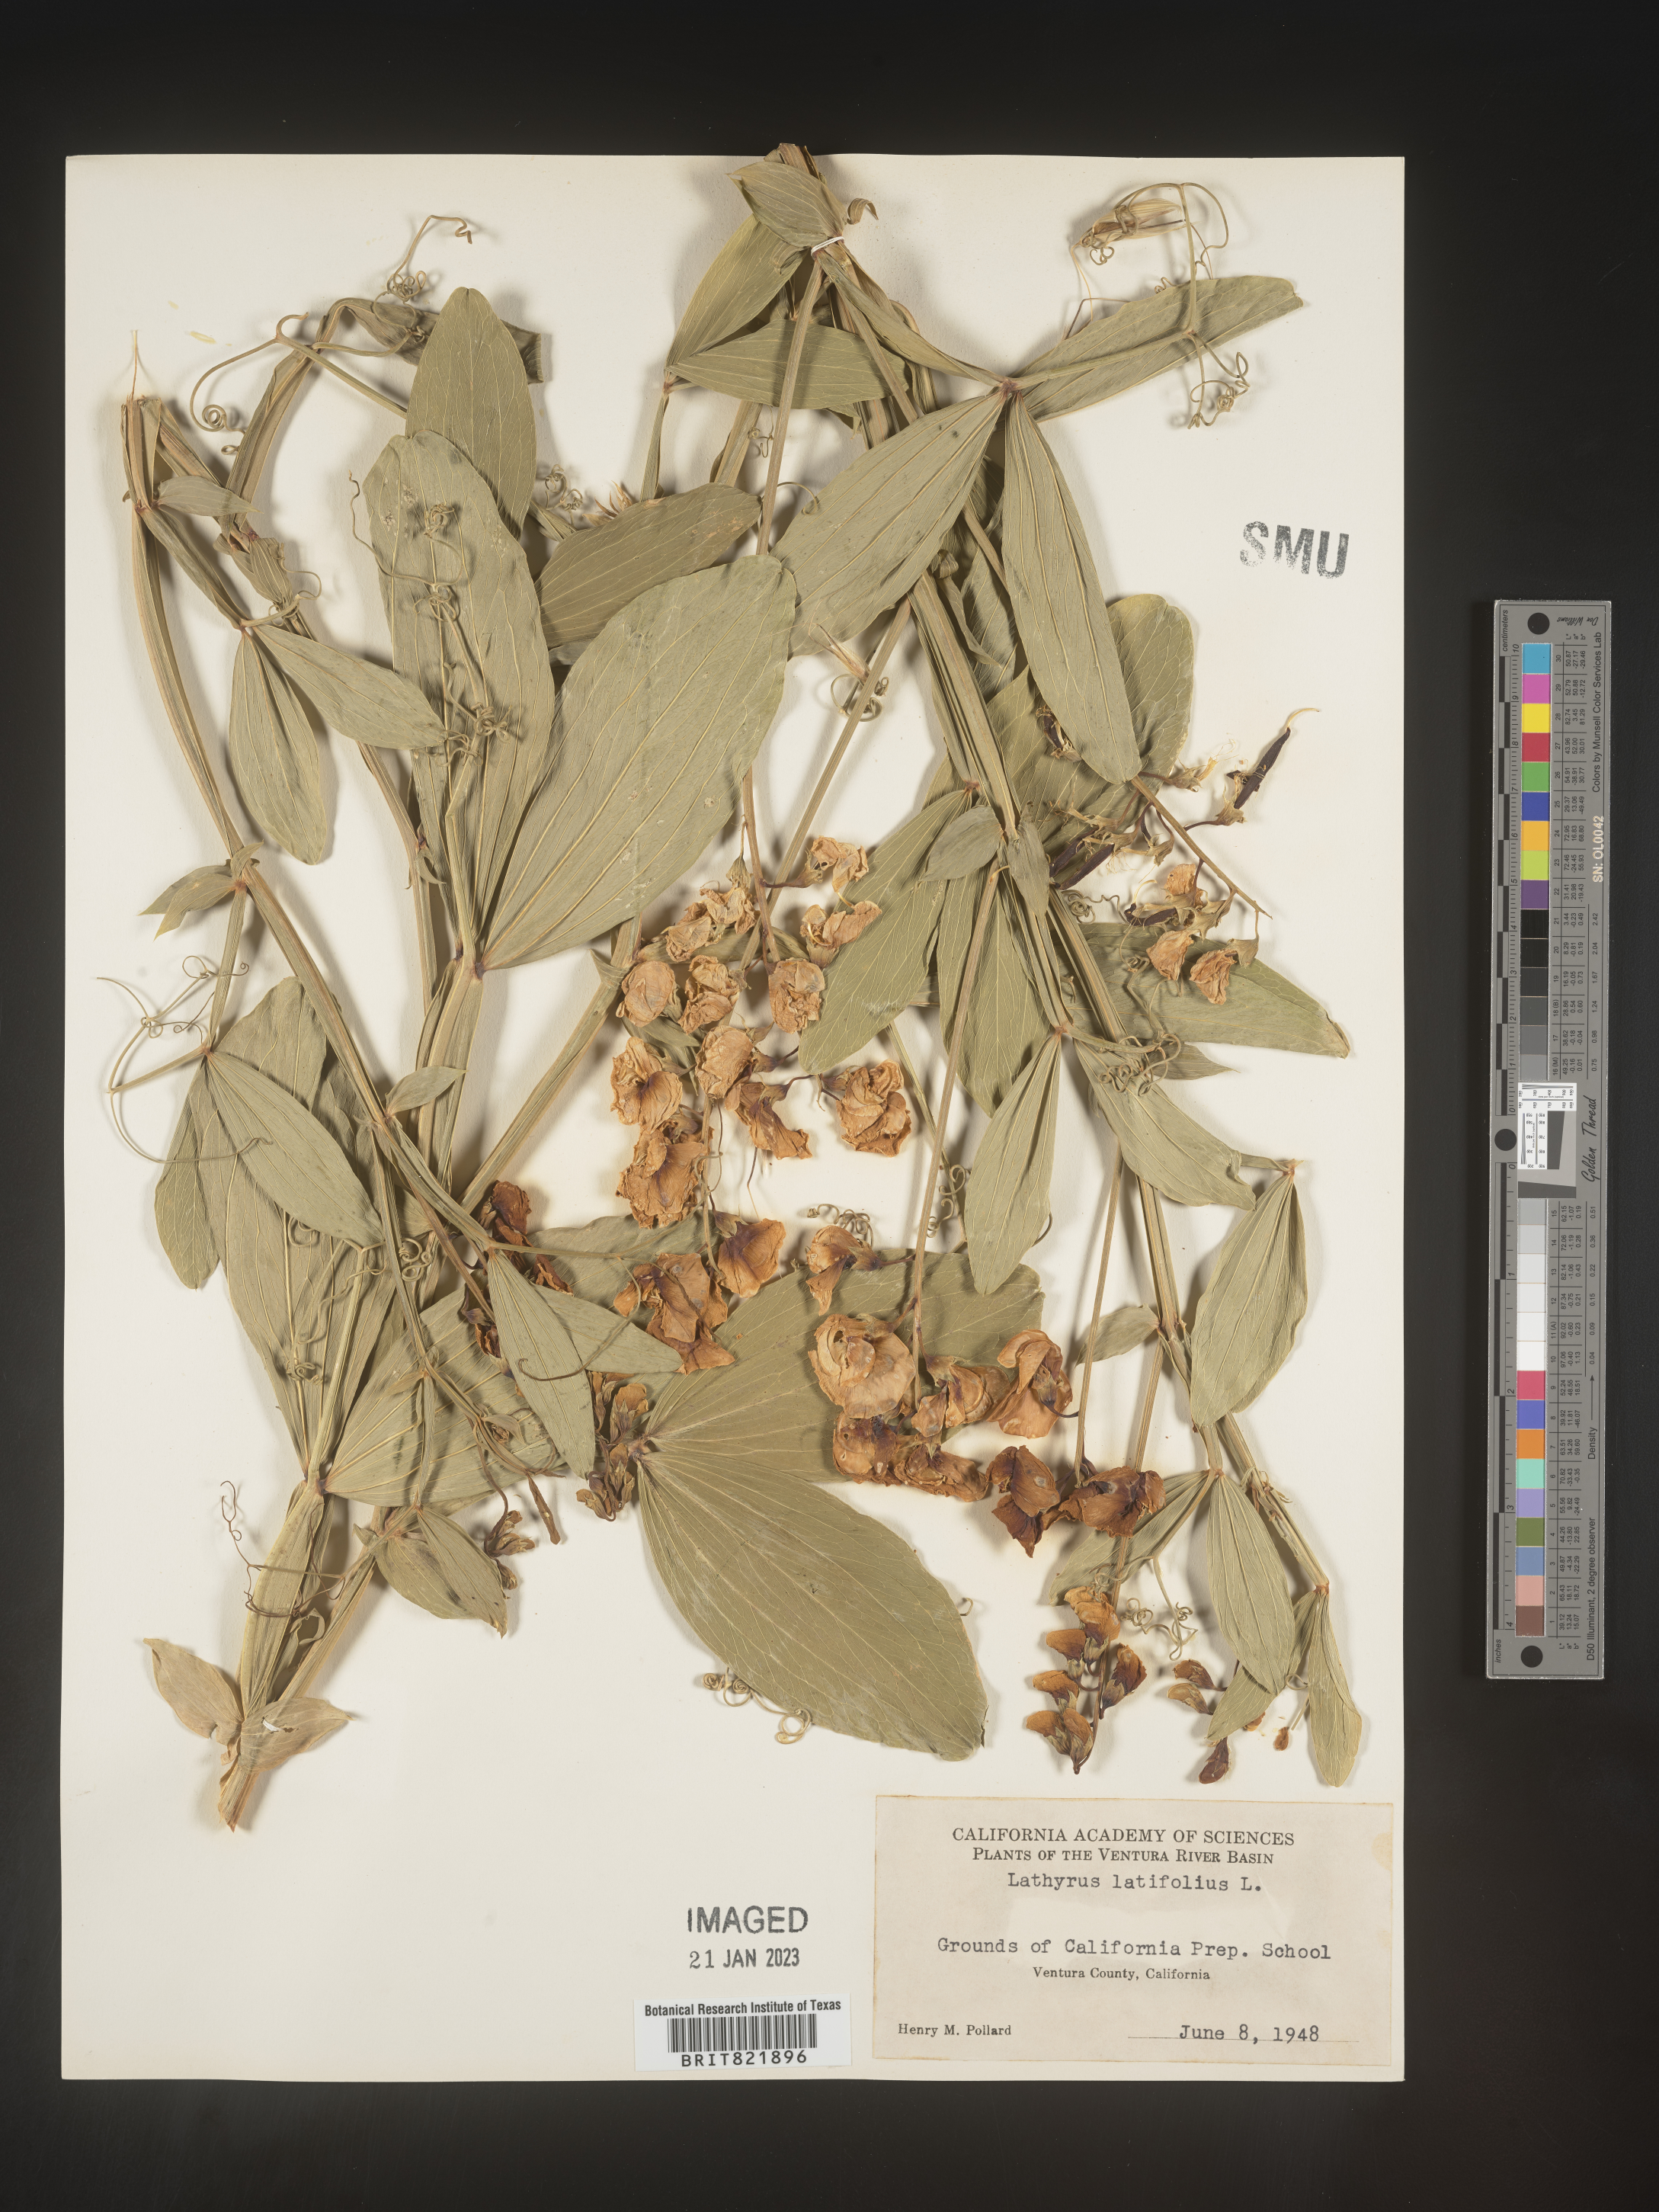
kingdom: Plantae
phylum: Tracheophyta
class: Magnoliopsida
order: Fabales
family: Fabaceae
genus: Lathyrus
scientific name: Lathyrus latifolius
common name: Perennial pea
